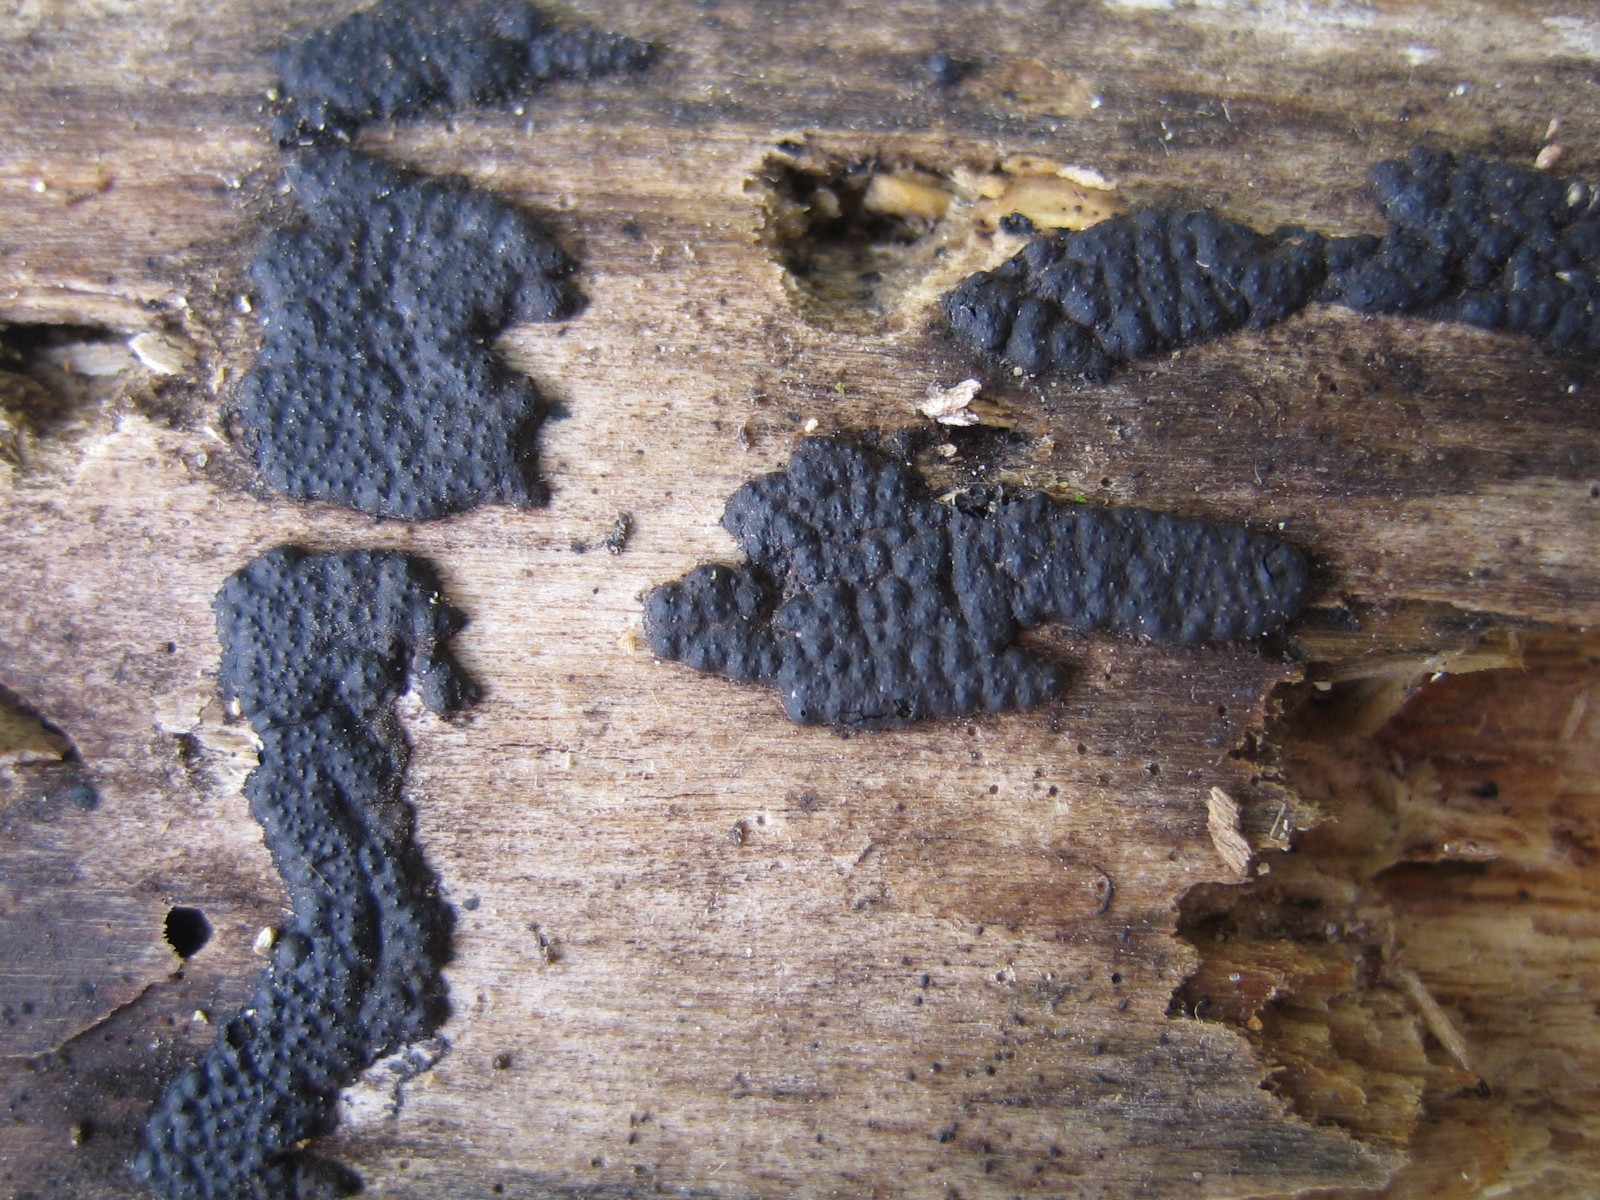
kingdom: Fungi
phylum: Ascomycota
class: Sordariomycetes
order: Xylariales
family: Xylariaceae
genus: Nemania
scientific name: Nemania
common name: kuldyne
